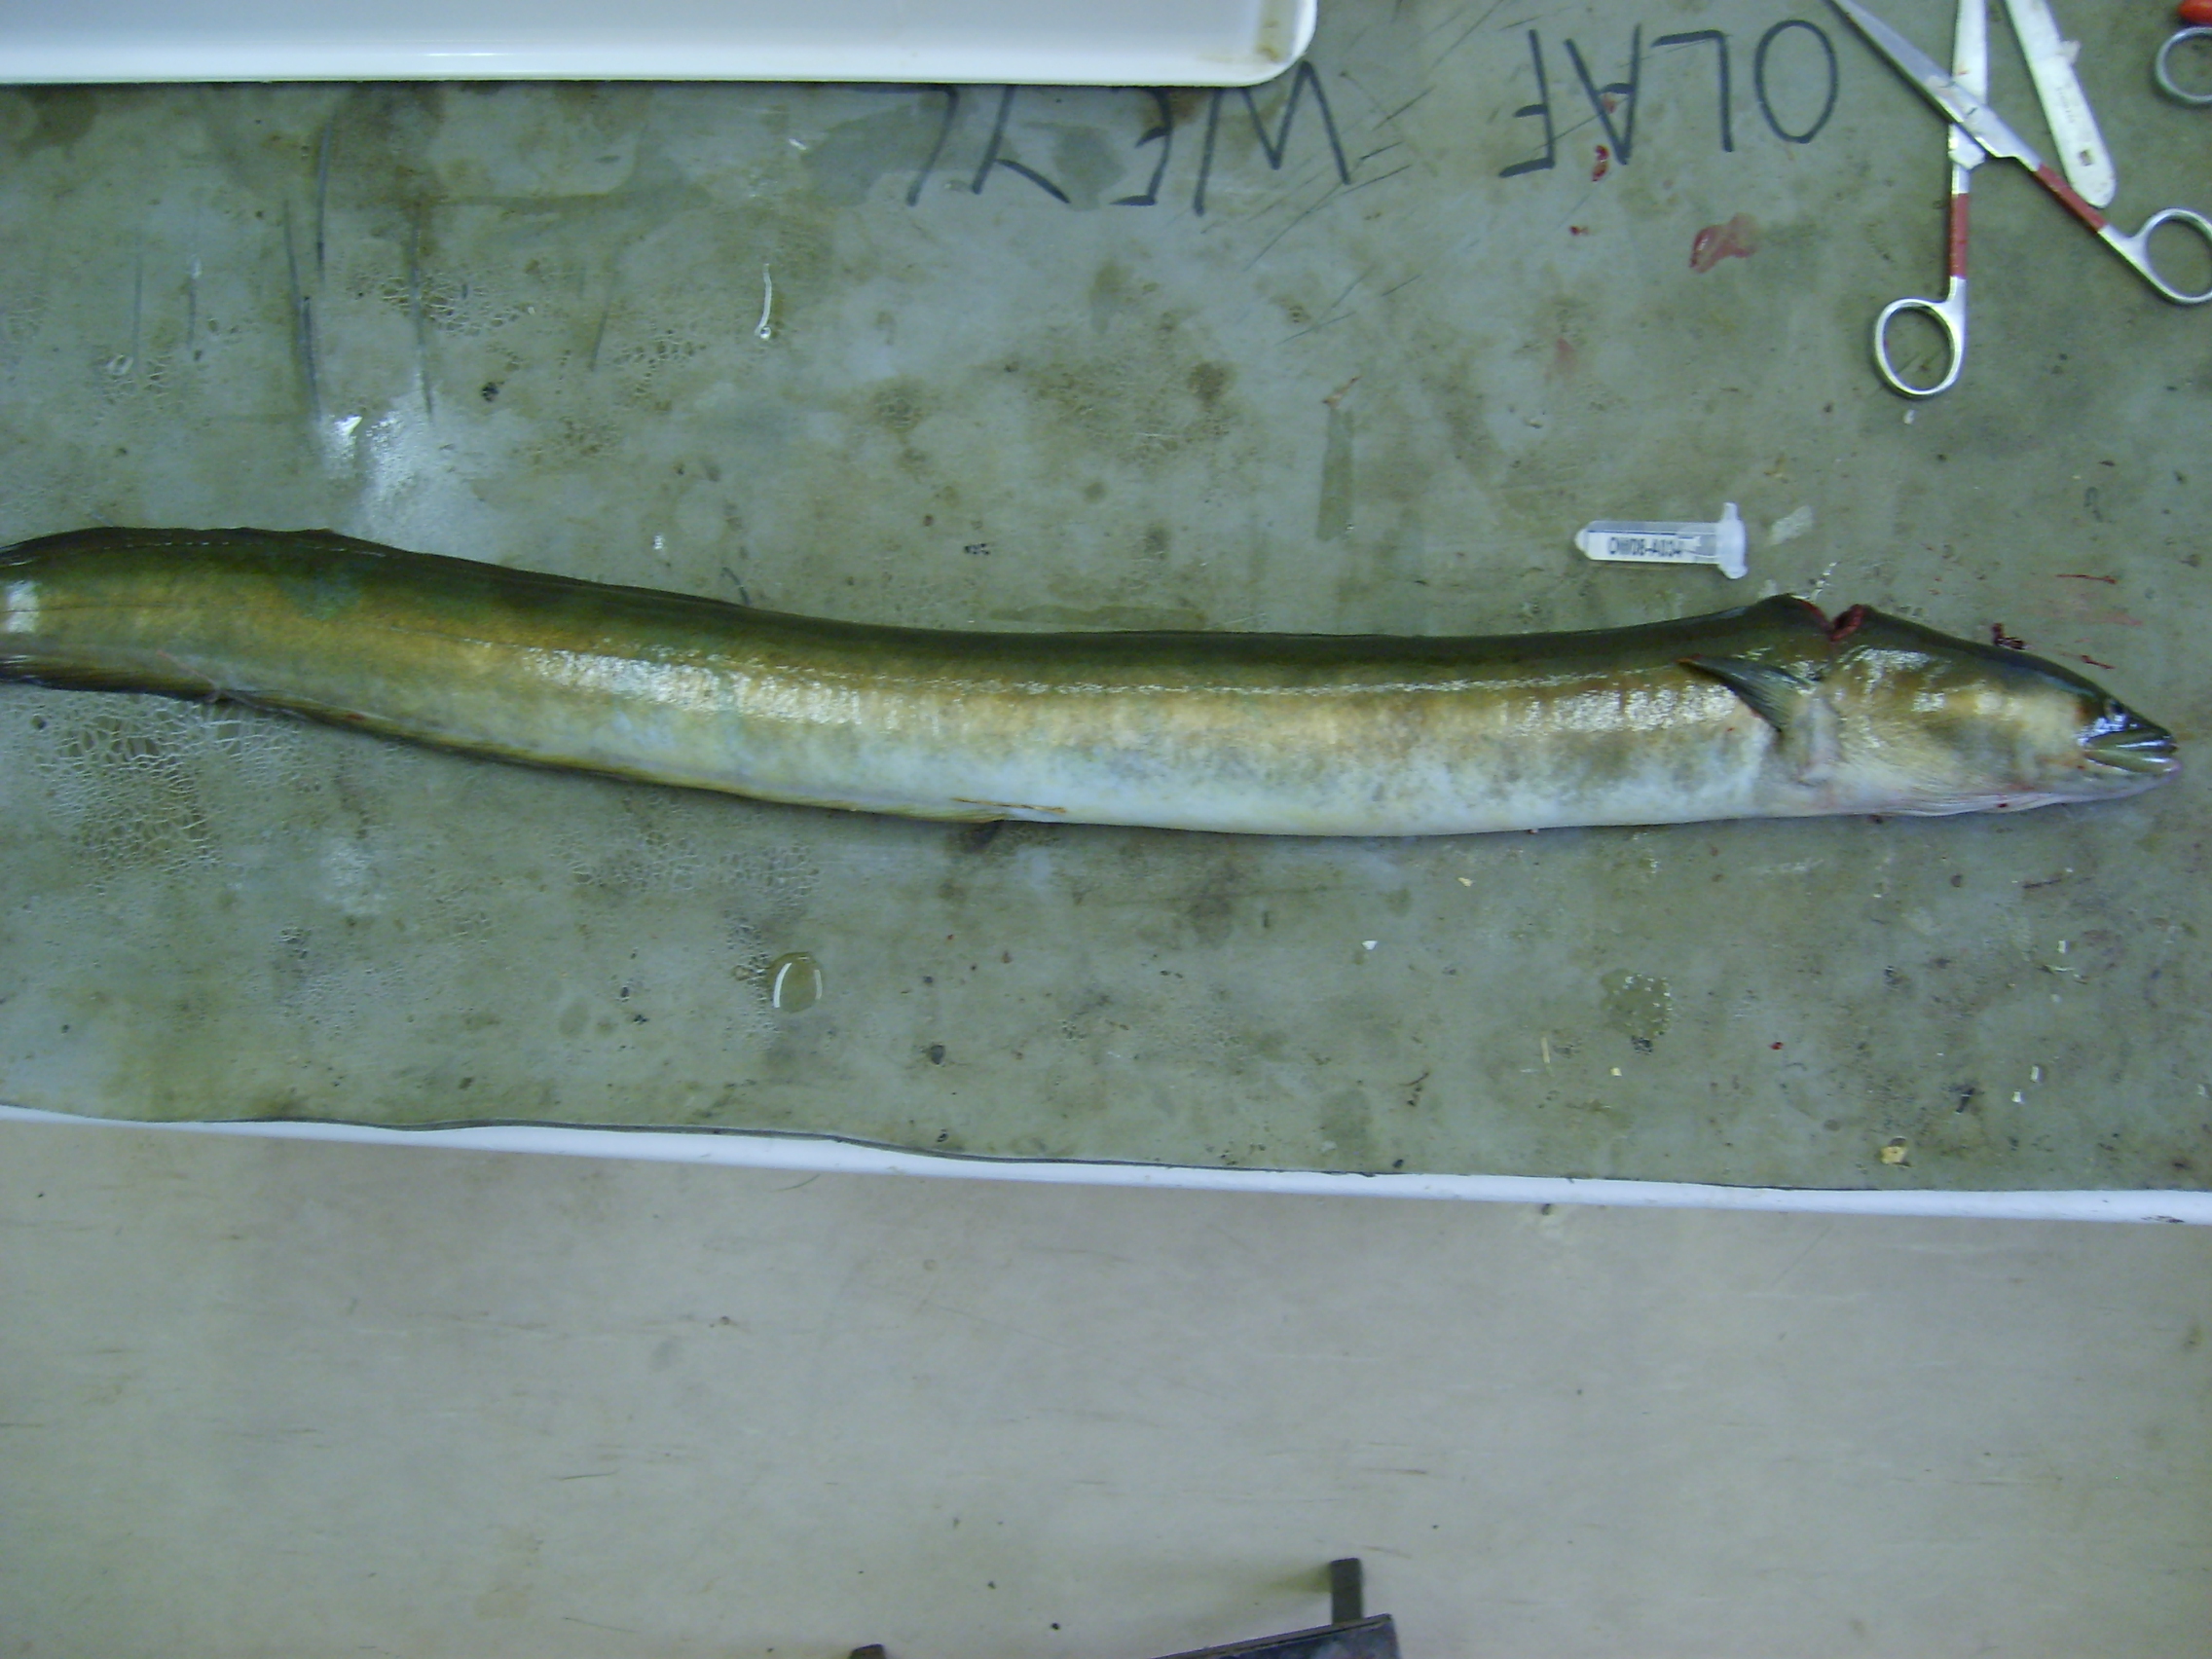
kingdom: Animalia
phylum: Chordata
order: Anguilliformes
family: Anguillidae
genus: Anguilla
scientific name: Anguilla mossambica
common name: African longfin eel
